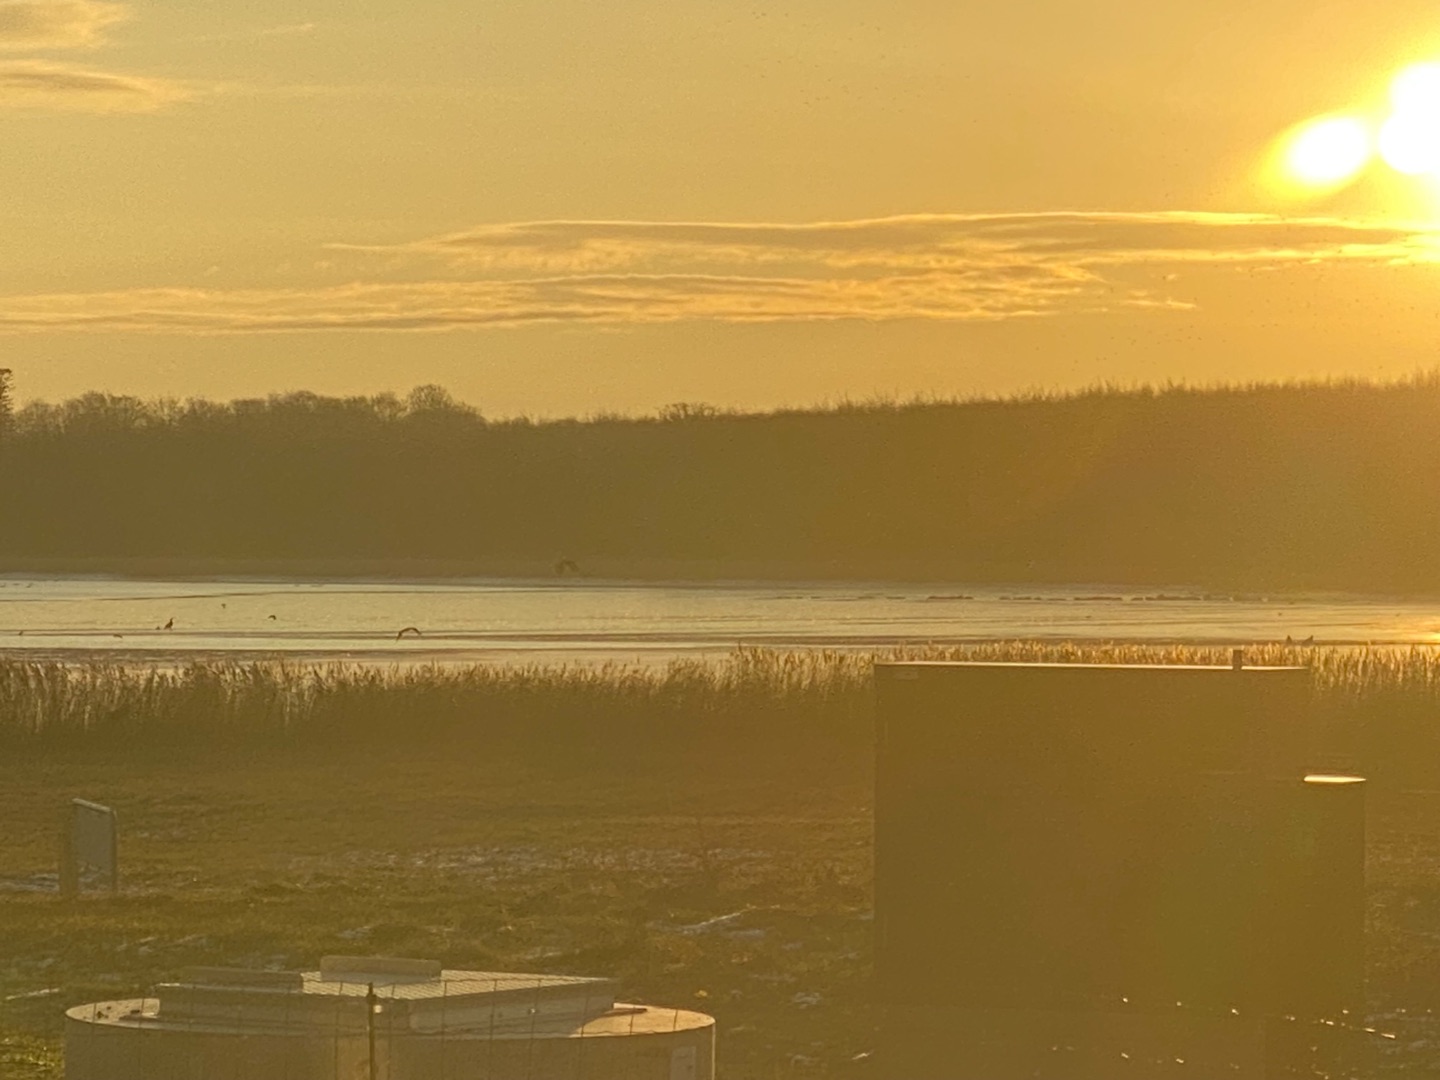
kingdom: Animalia
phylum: Chordata
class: Aves
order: Accipitriformes
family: Accipitridae
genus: Haliaeetus
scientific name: Haliaeetus albicilla
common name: Havørn
